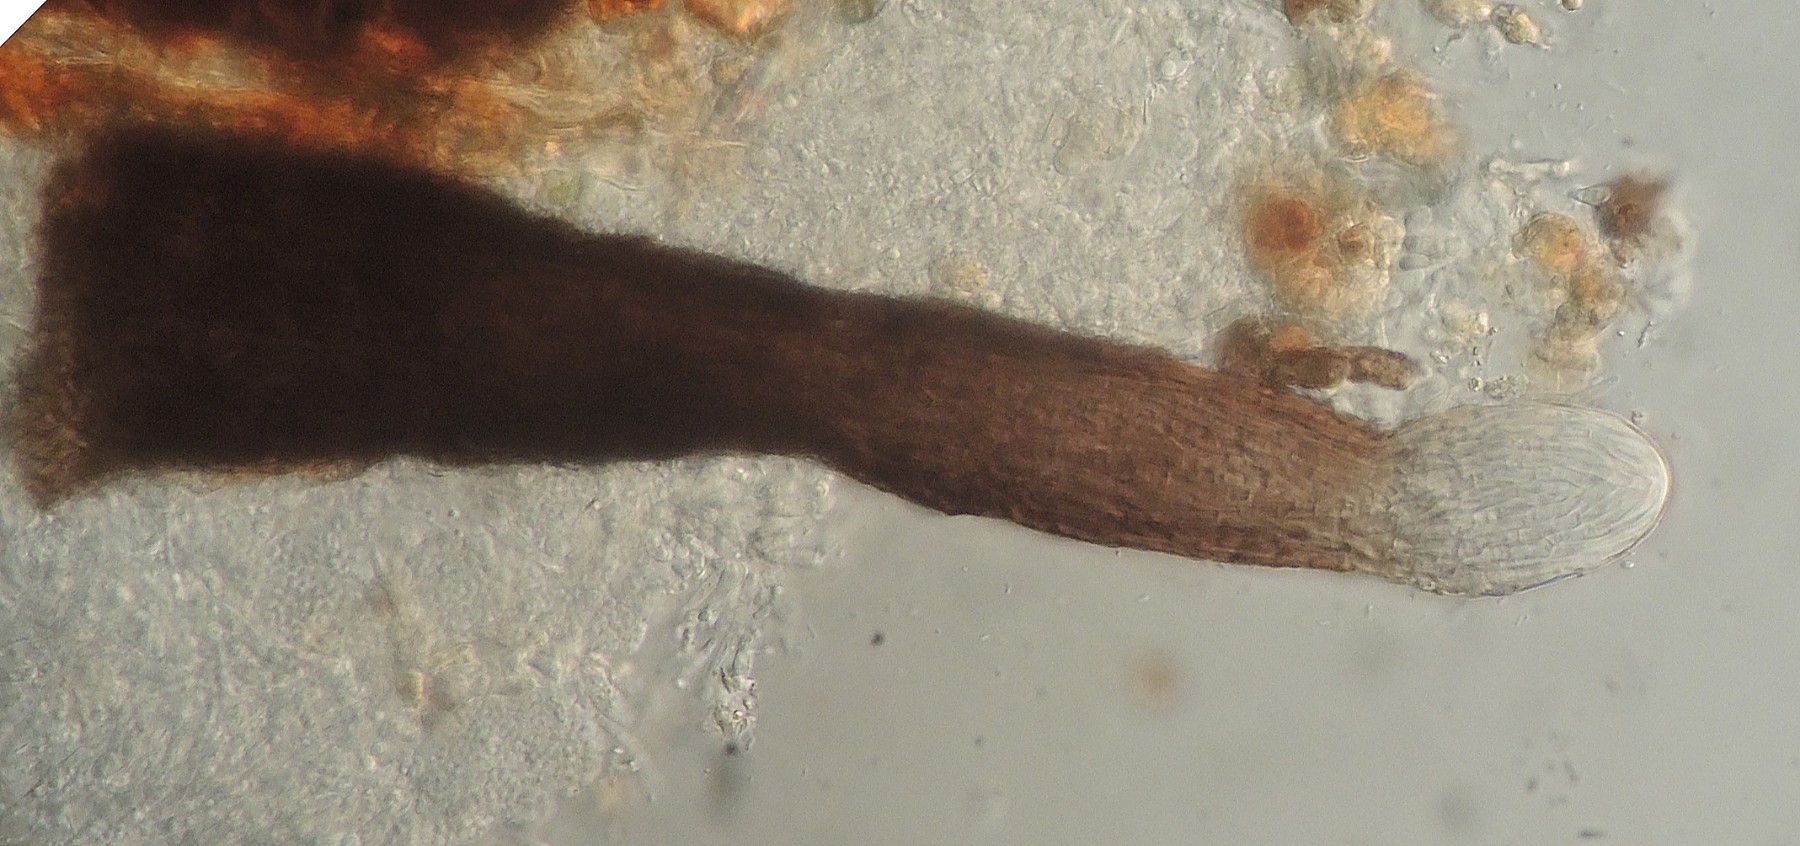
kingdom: Fungi
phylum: Ascomycota
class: Sordariomycetes
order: Diaporthales
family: Valsaceae
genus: Apioplagiostoma
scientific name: Apioplagiostoma aceriferum
